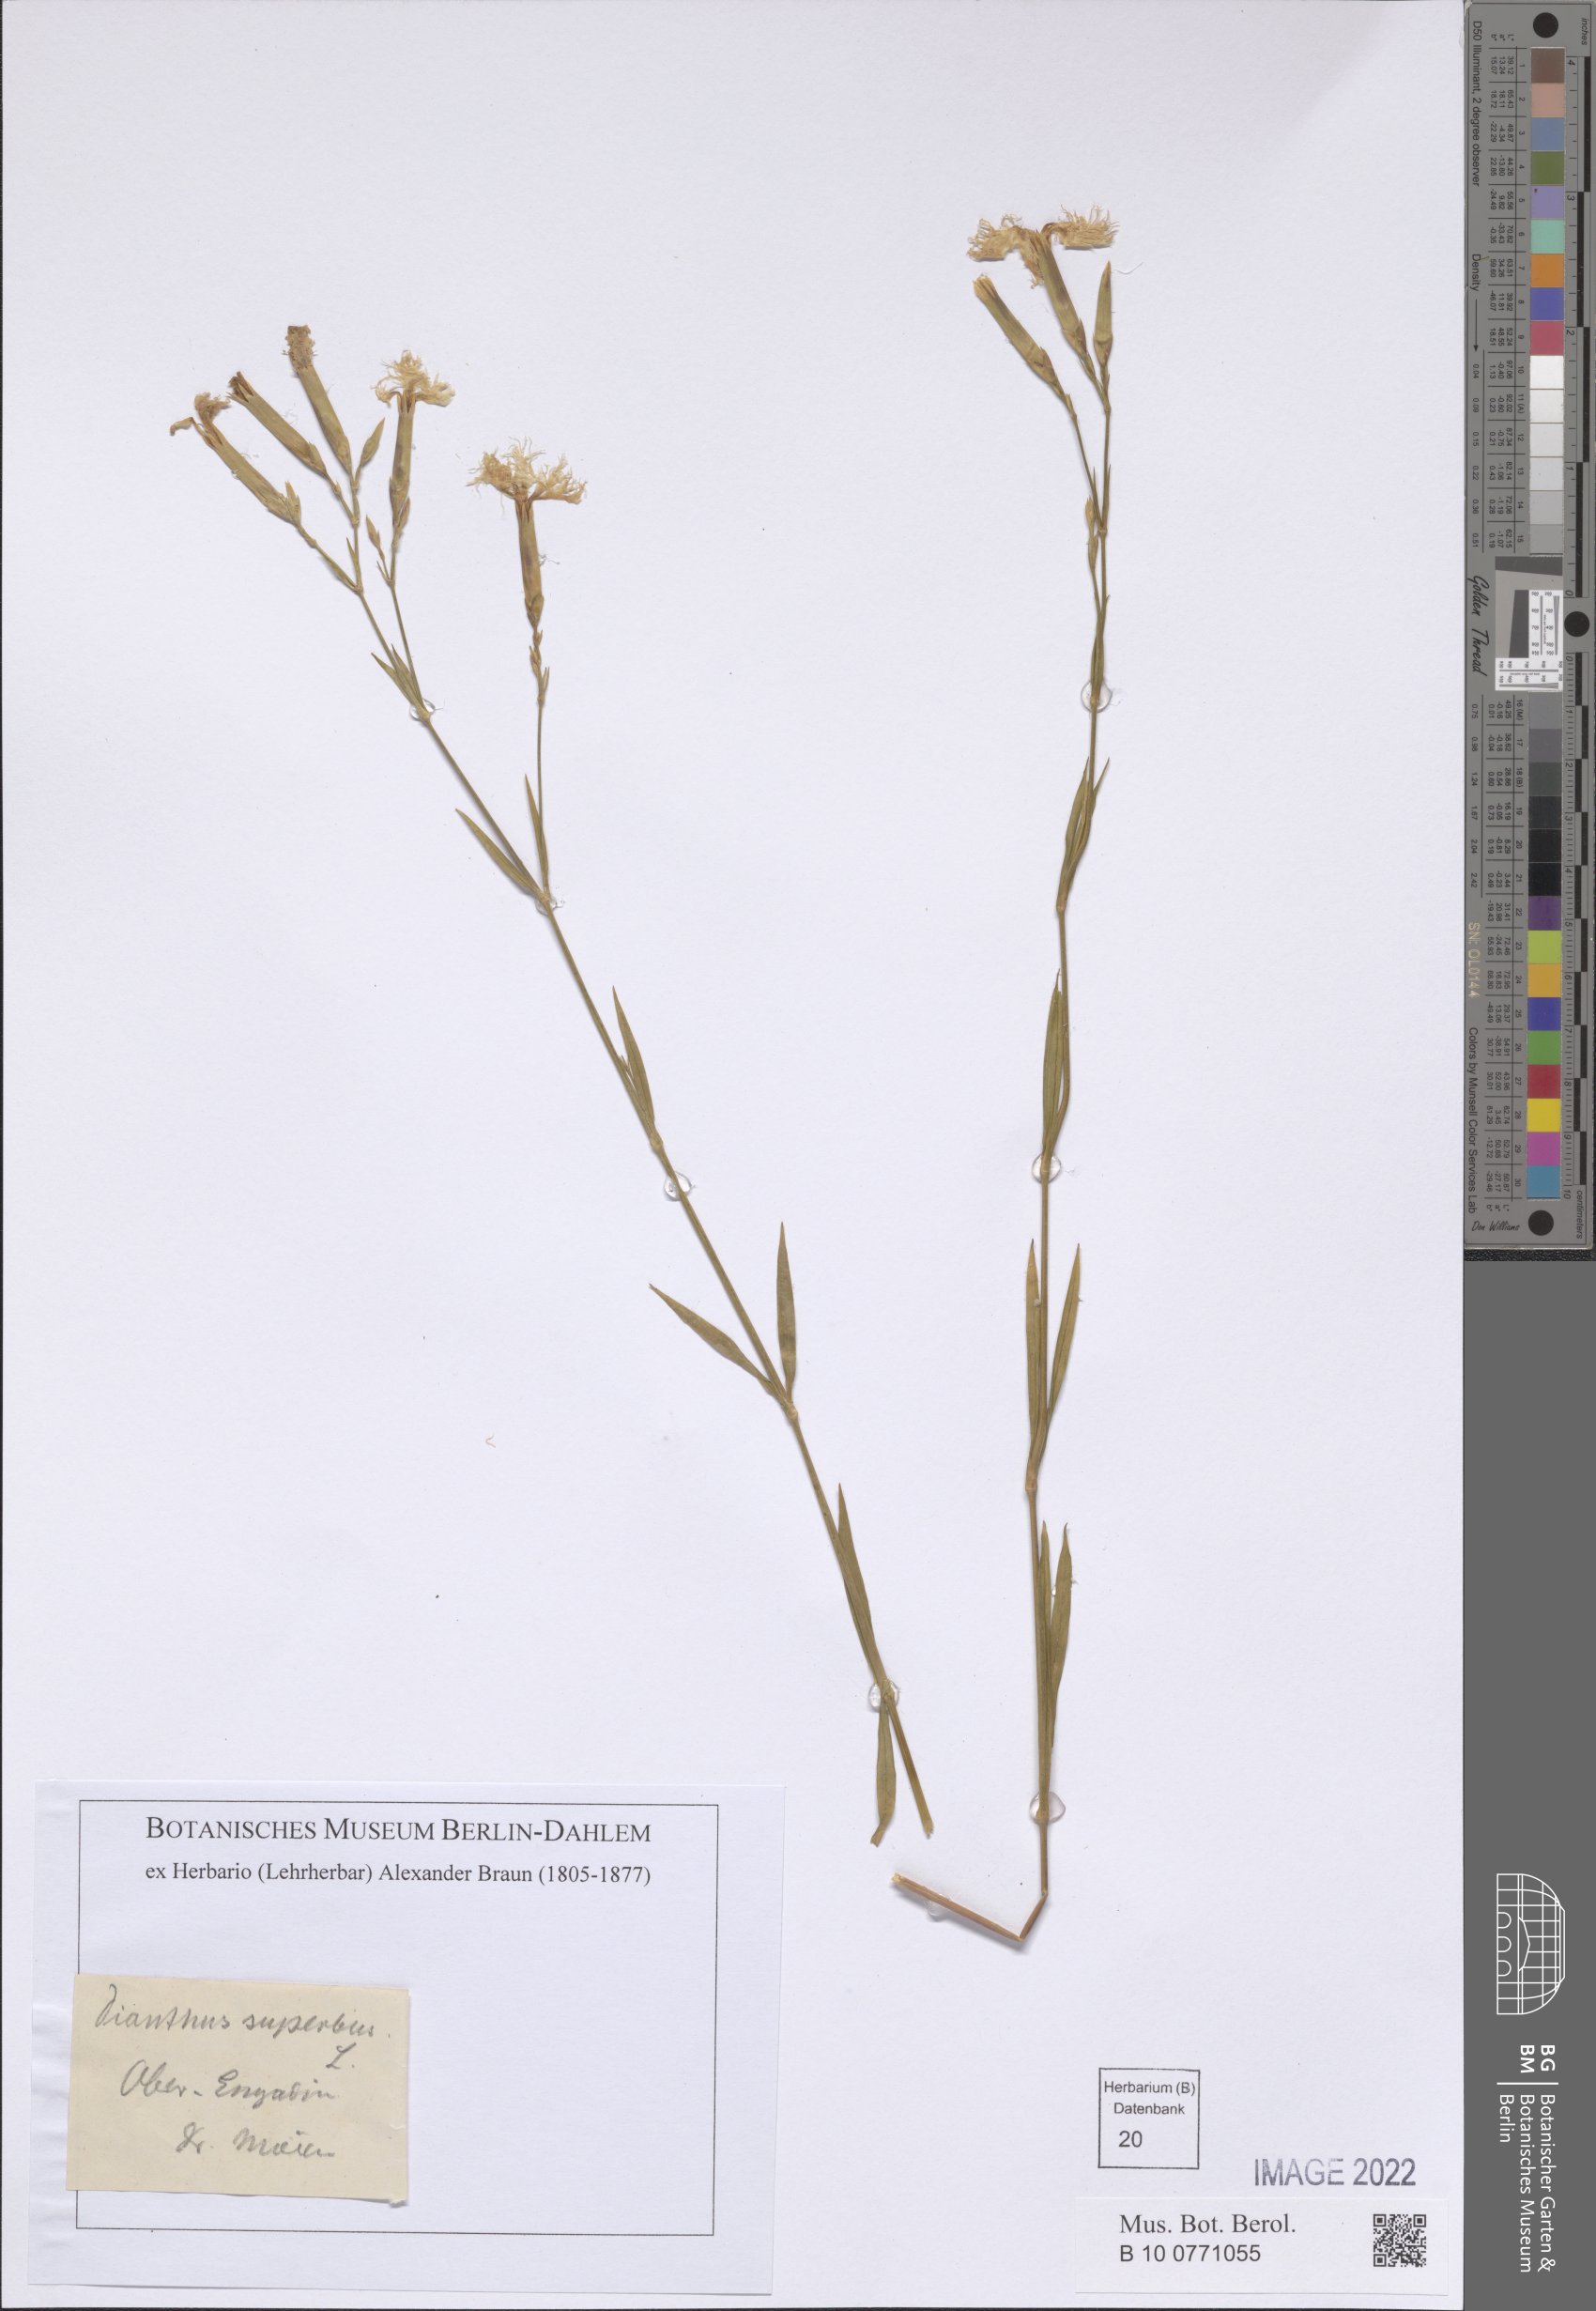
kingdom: Plantae
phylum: Tracheophyta
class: Magnoliopsida
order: Caryophyllales
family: Caryophyllaceae
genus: Dianthus
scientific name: Dianthus superbus
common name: Fringed pink
